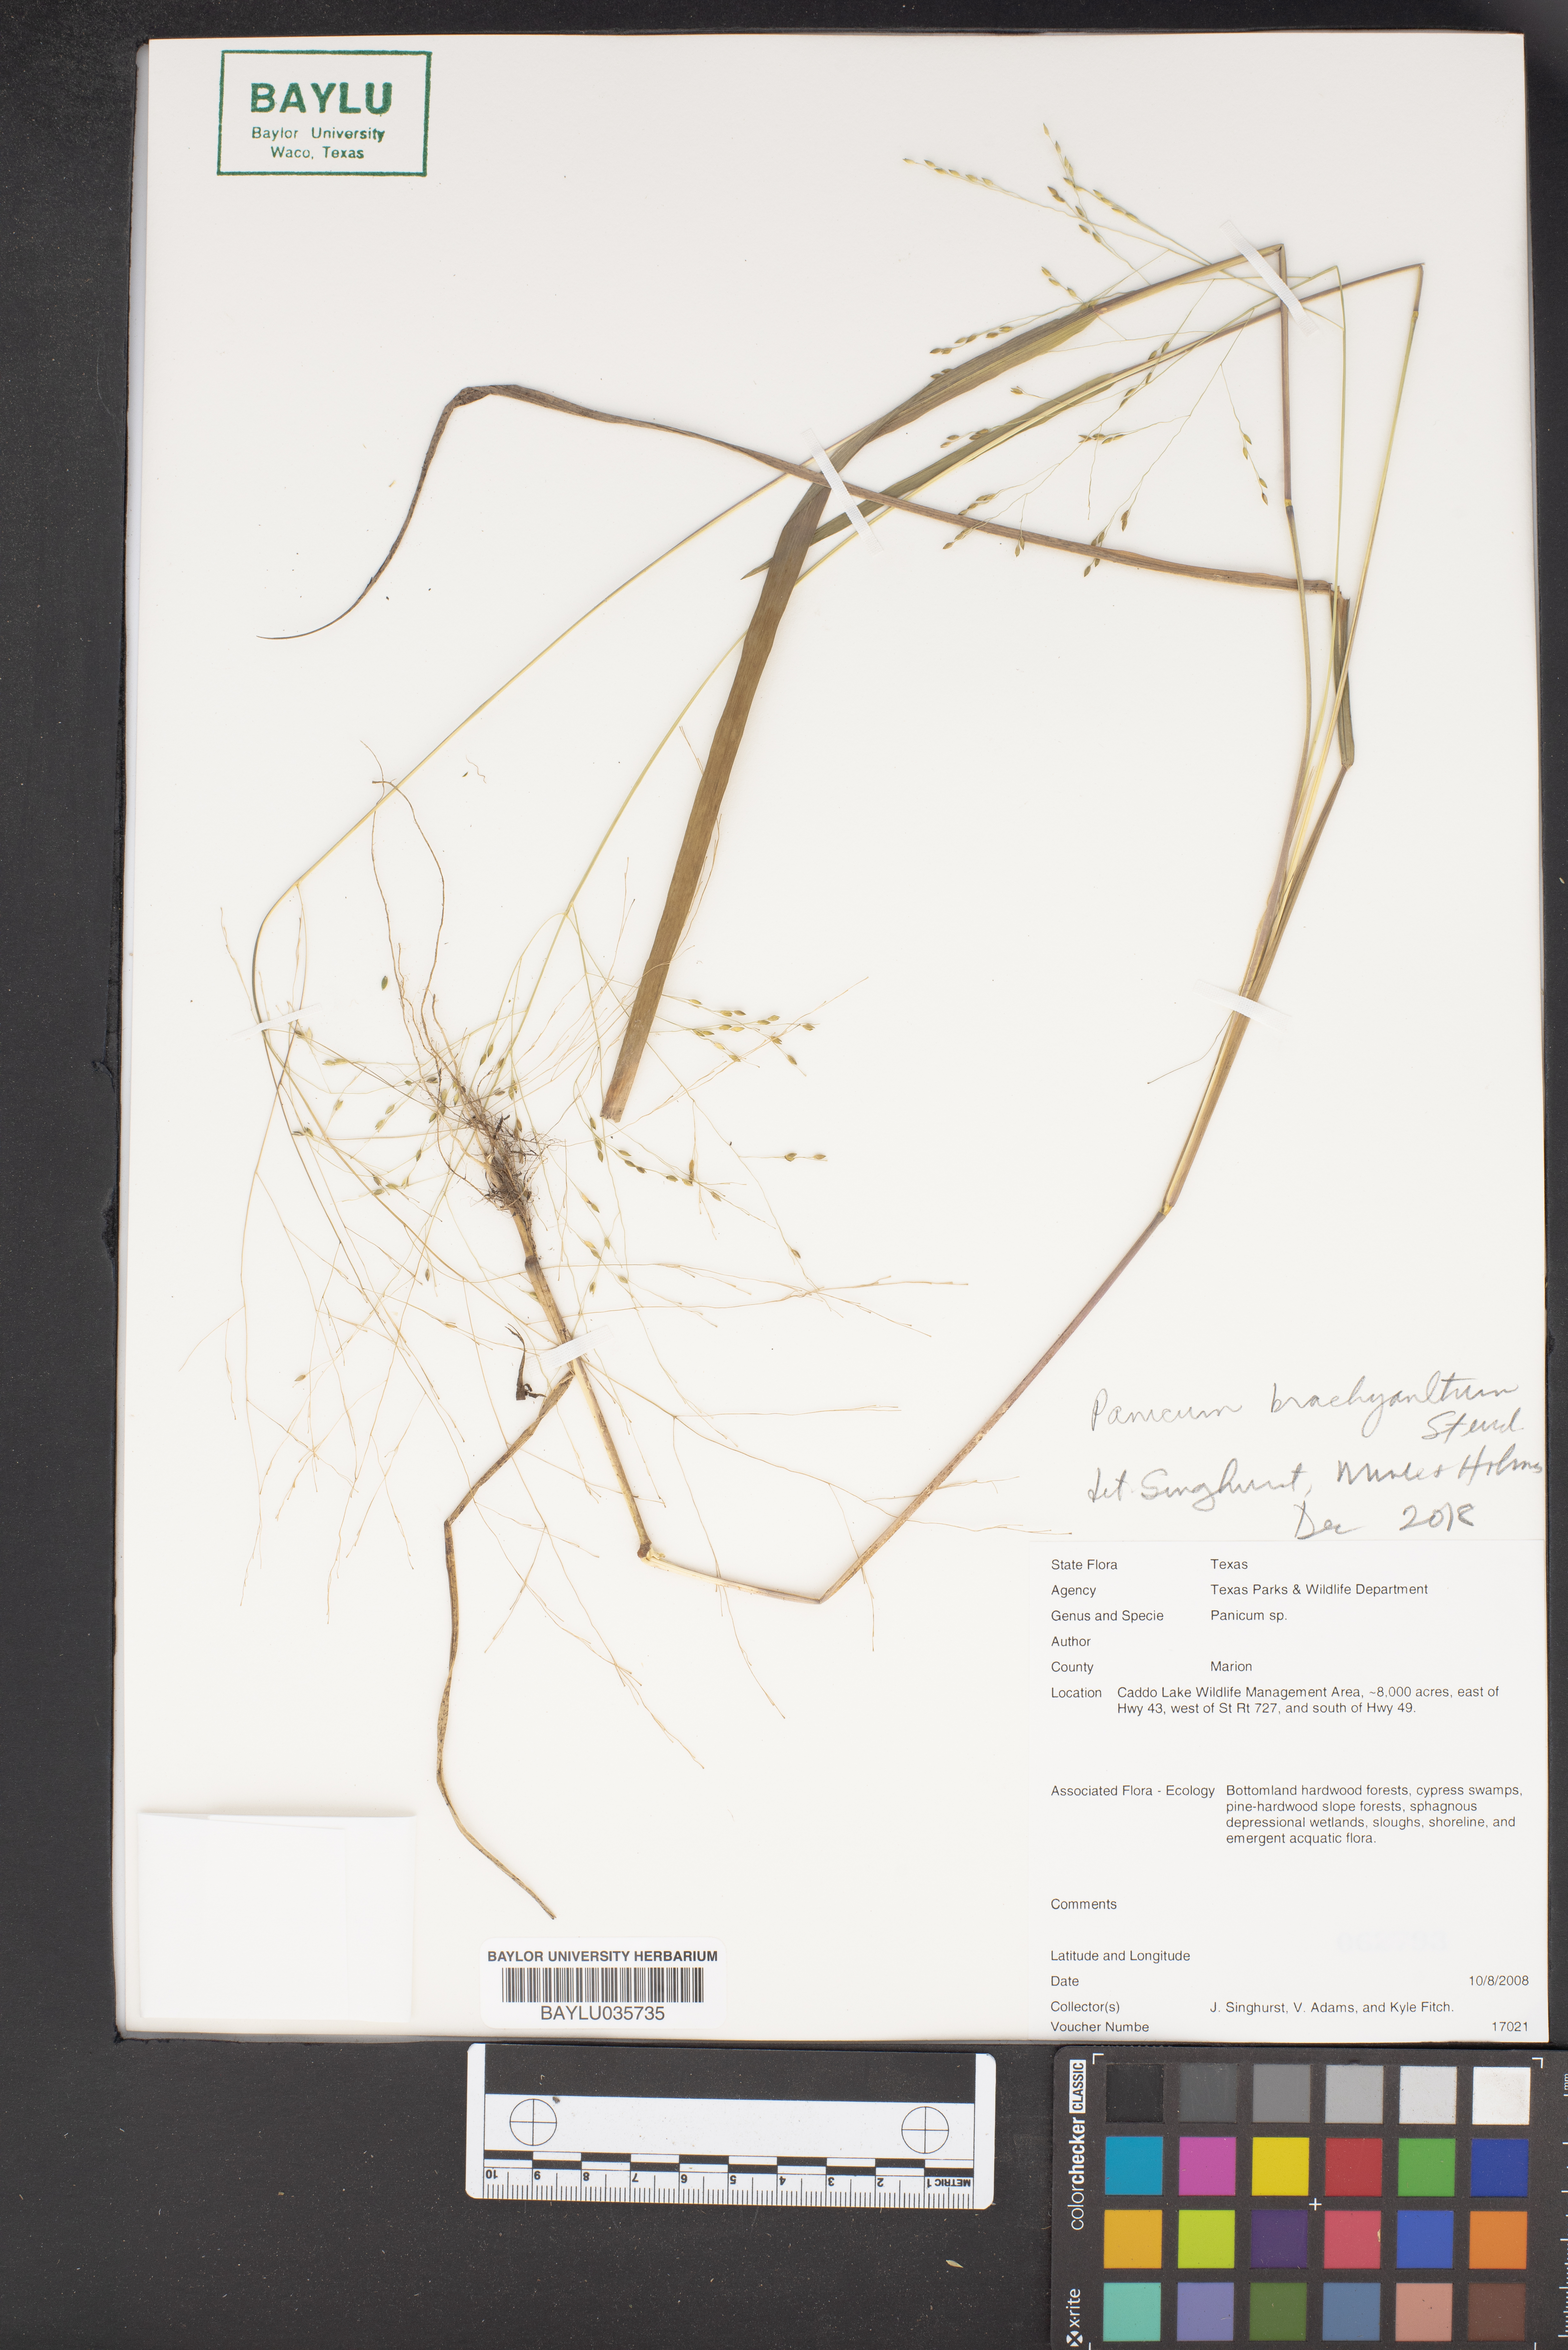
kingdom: Plantae
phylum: Tracheophyta
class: Liliopsida
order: Poales
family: Poaceae
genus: Kellochloa
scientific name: Kellochloa brachyantha
